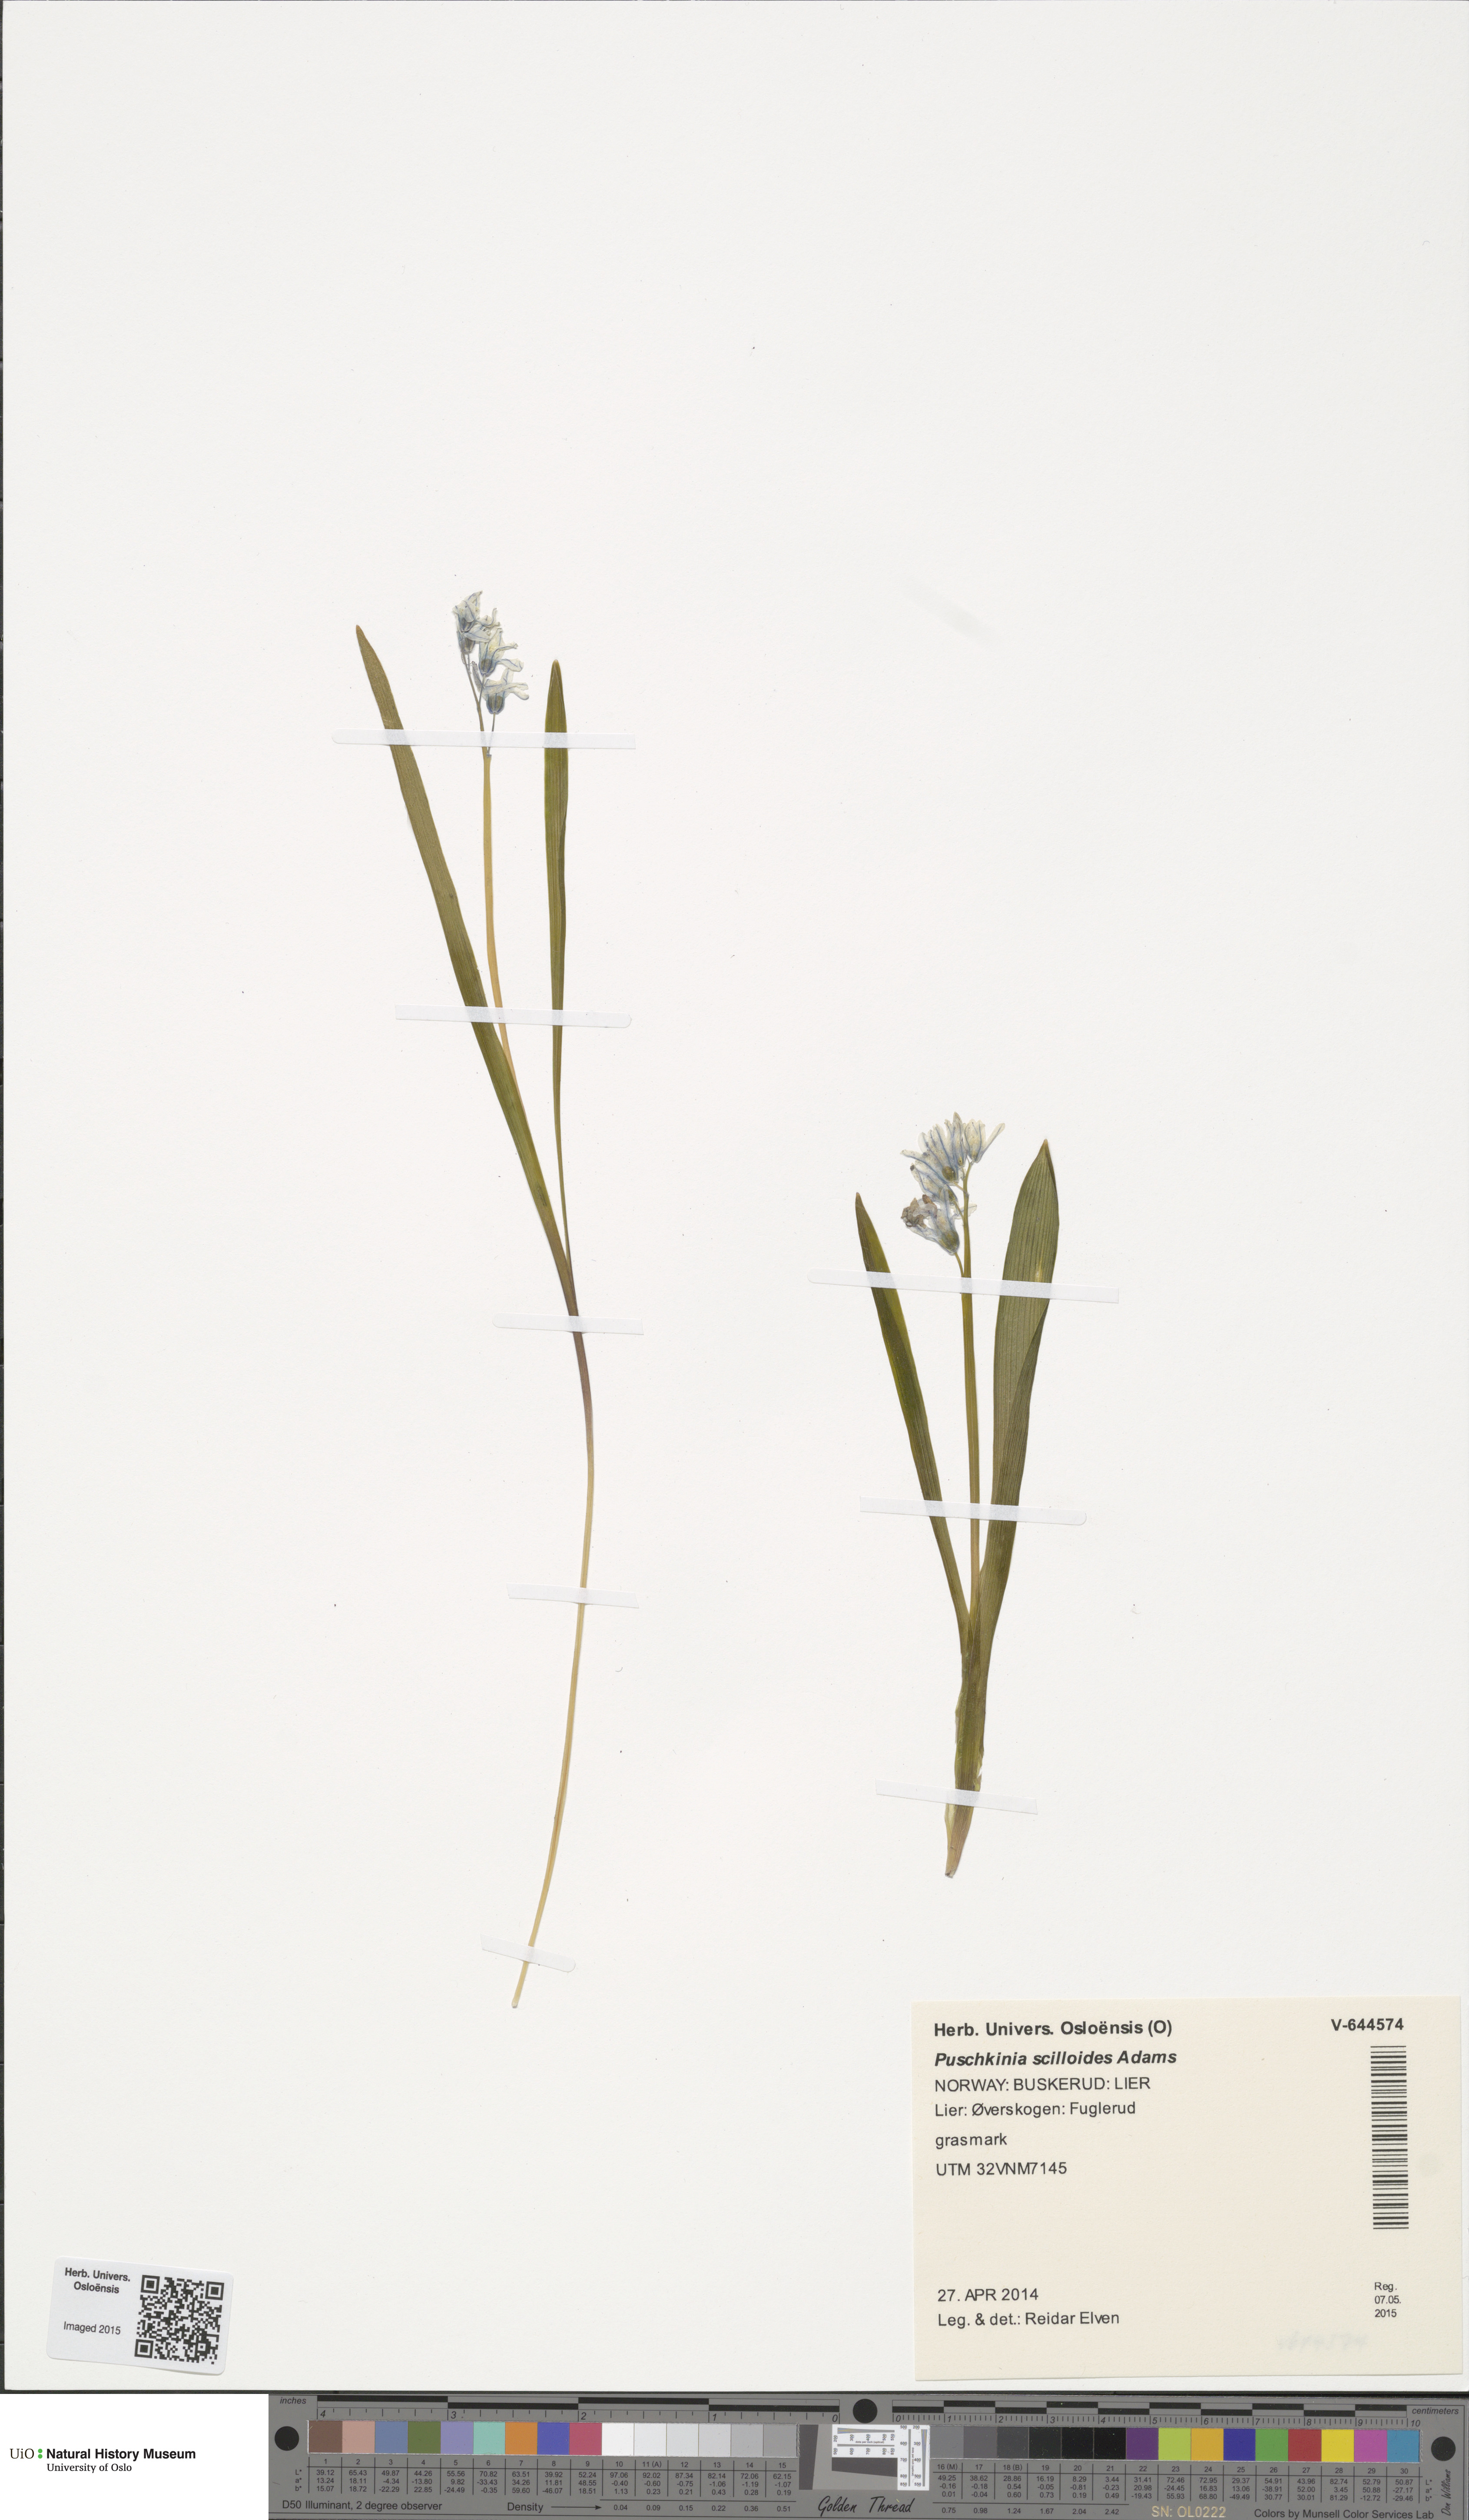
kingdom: Plantae
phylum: Tracheophyta
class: Liliopsida
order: Asparagales
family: Asparagaceae
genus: Puschkinia
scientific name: Puschkinia scilloides
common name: Striped squill
